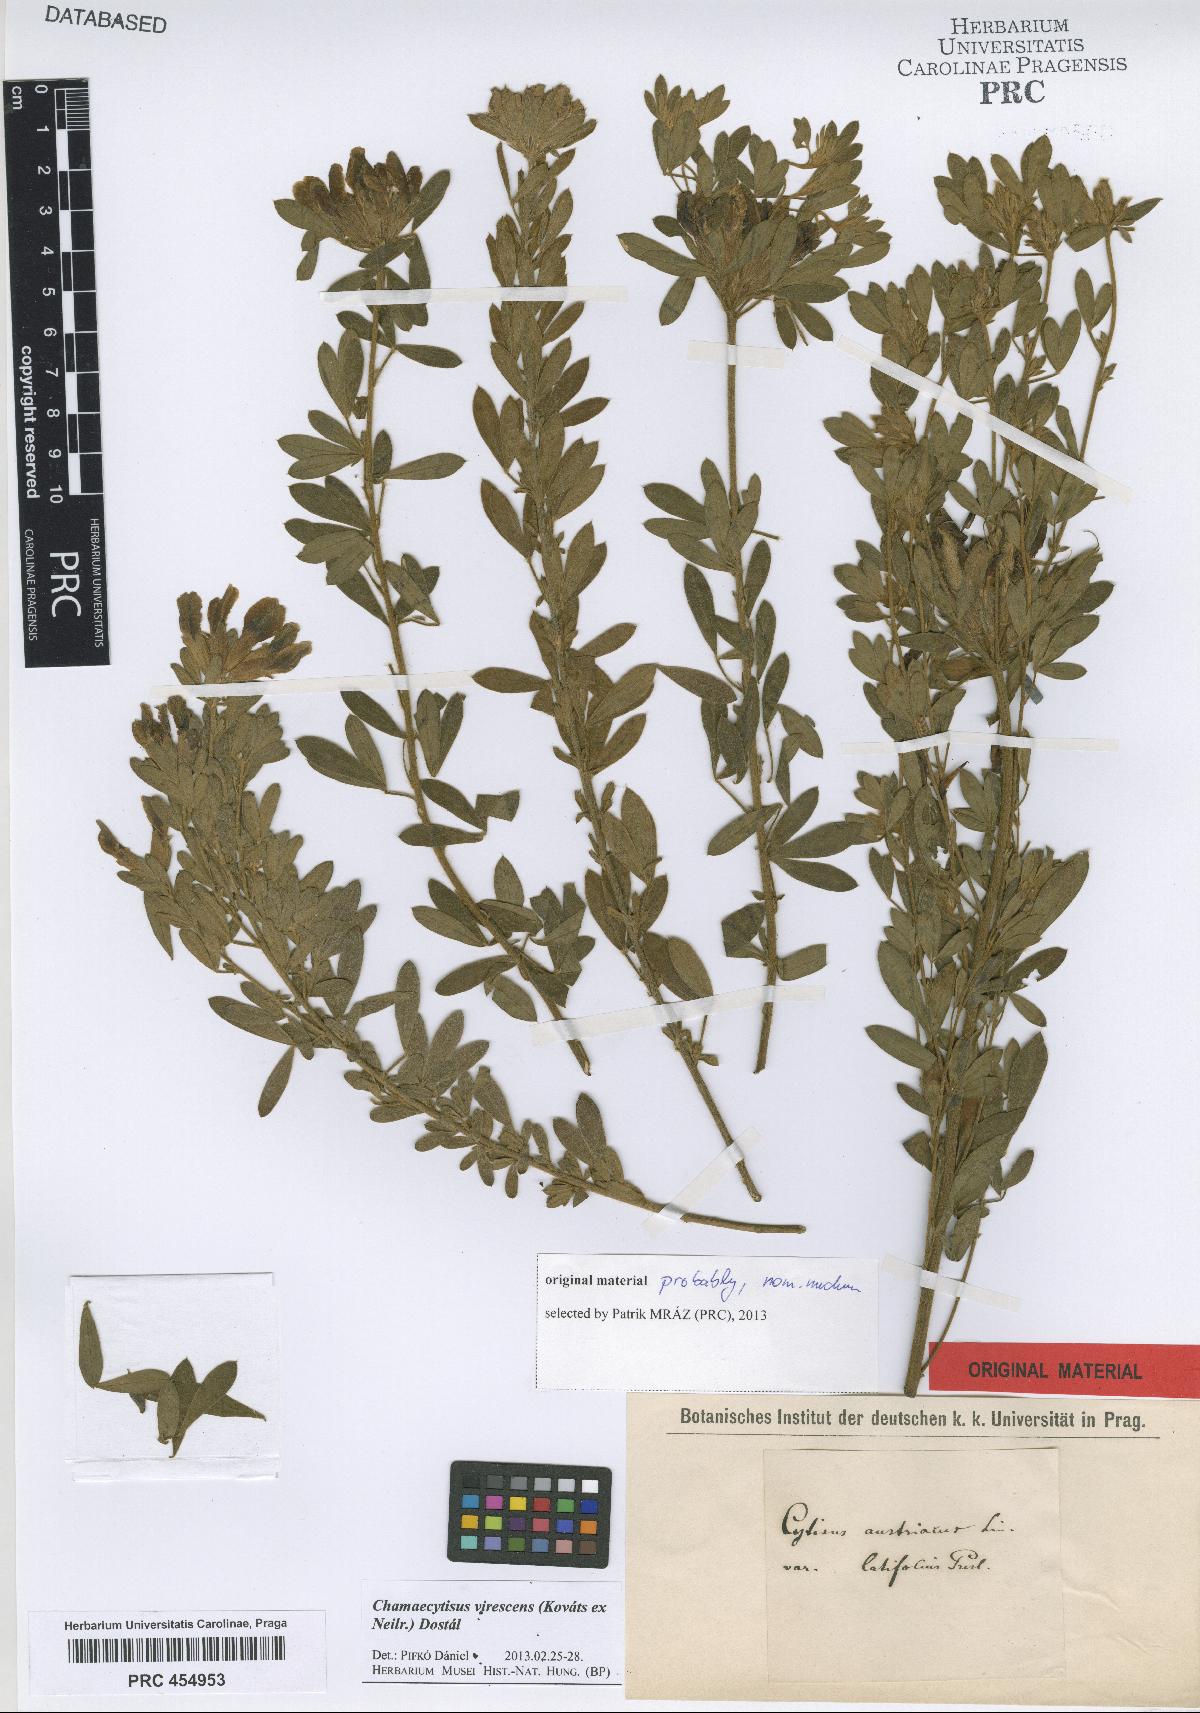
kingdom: Plantae
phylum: Tracheophyta
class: Magnoliopsida
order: Fabales
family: Fabaceae
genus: Chamaecytisus
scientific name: Chamaecytisus virescens
